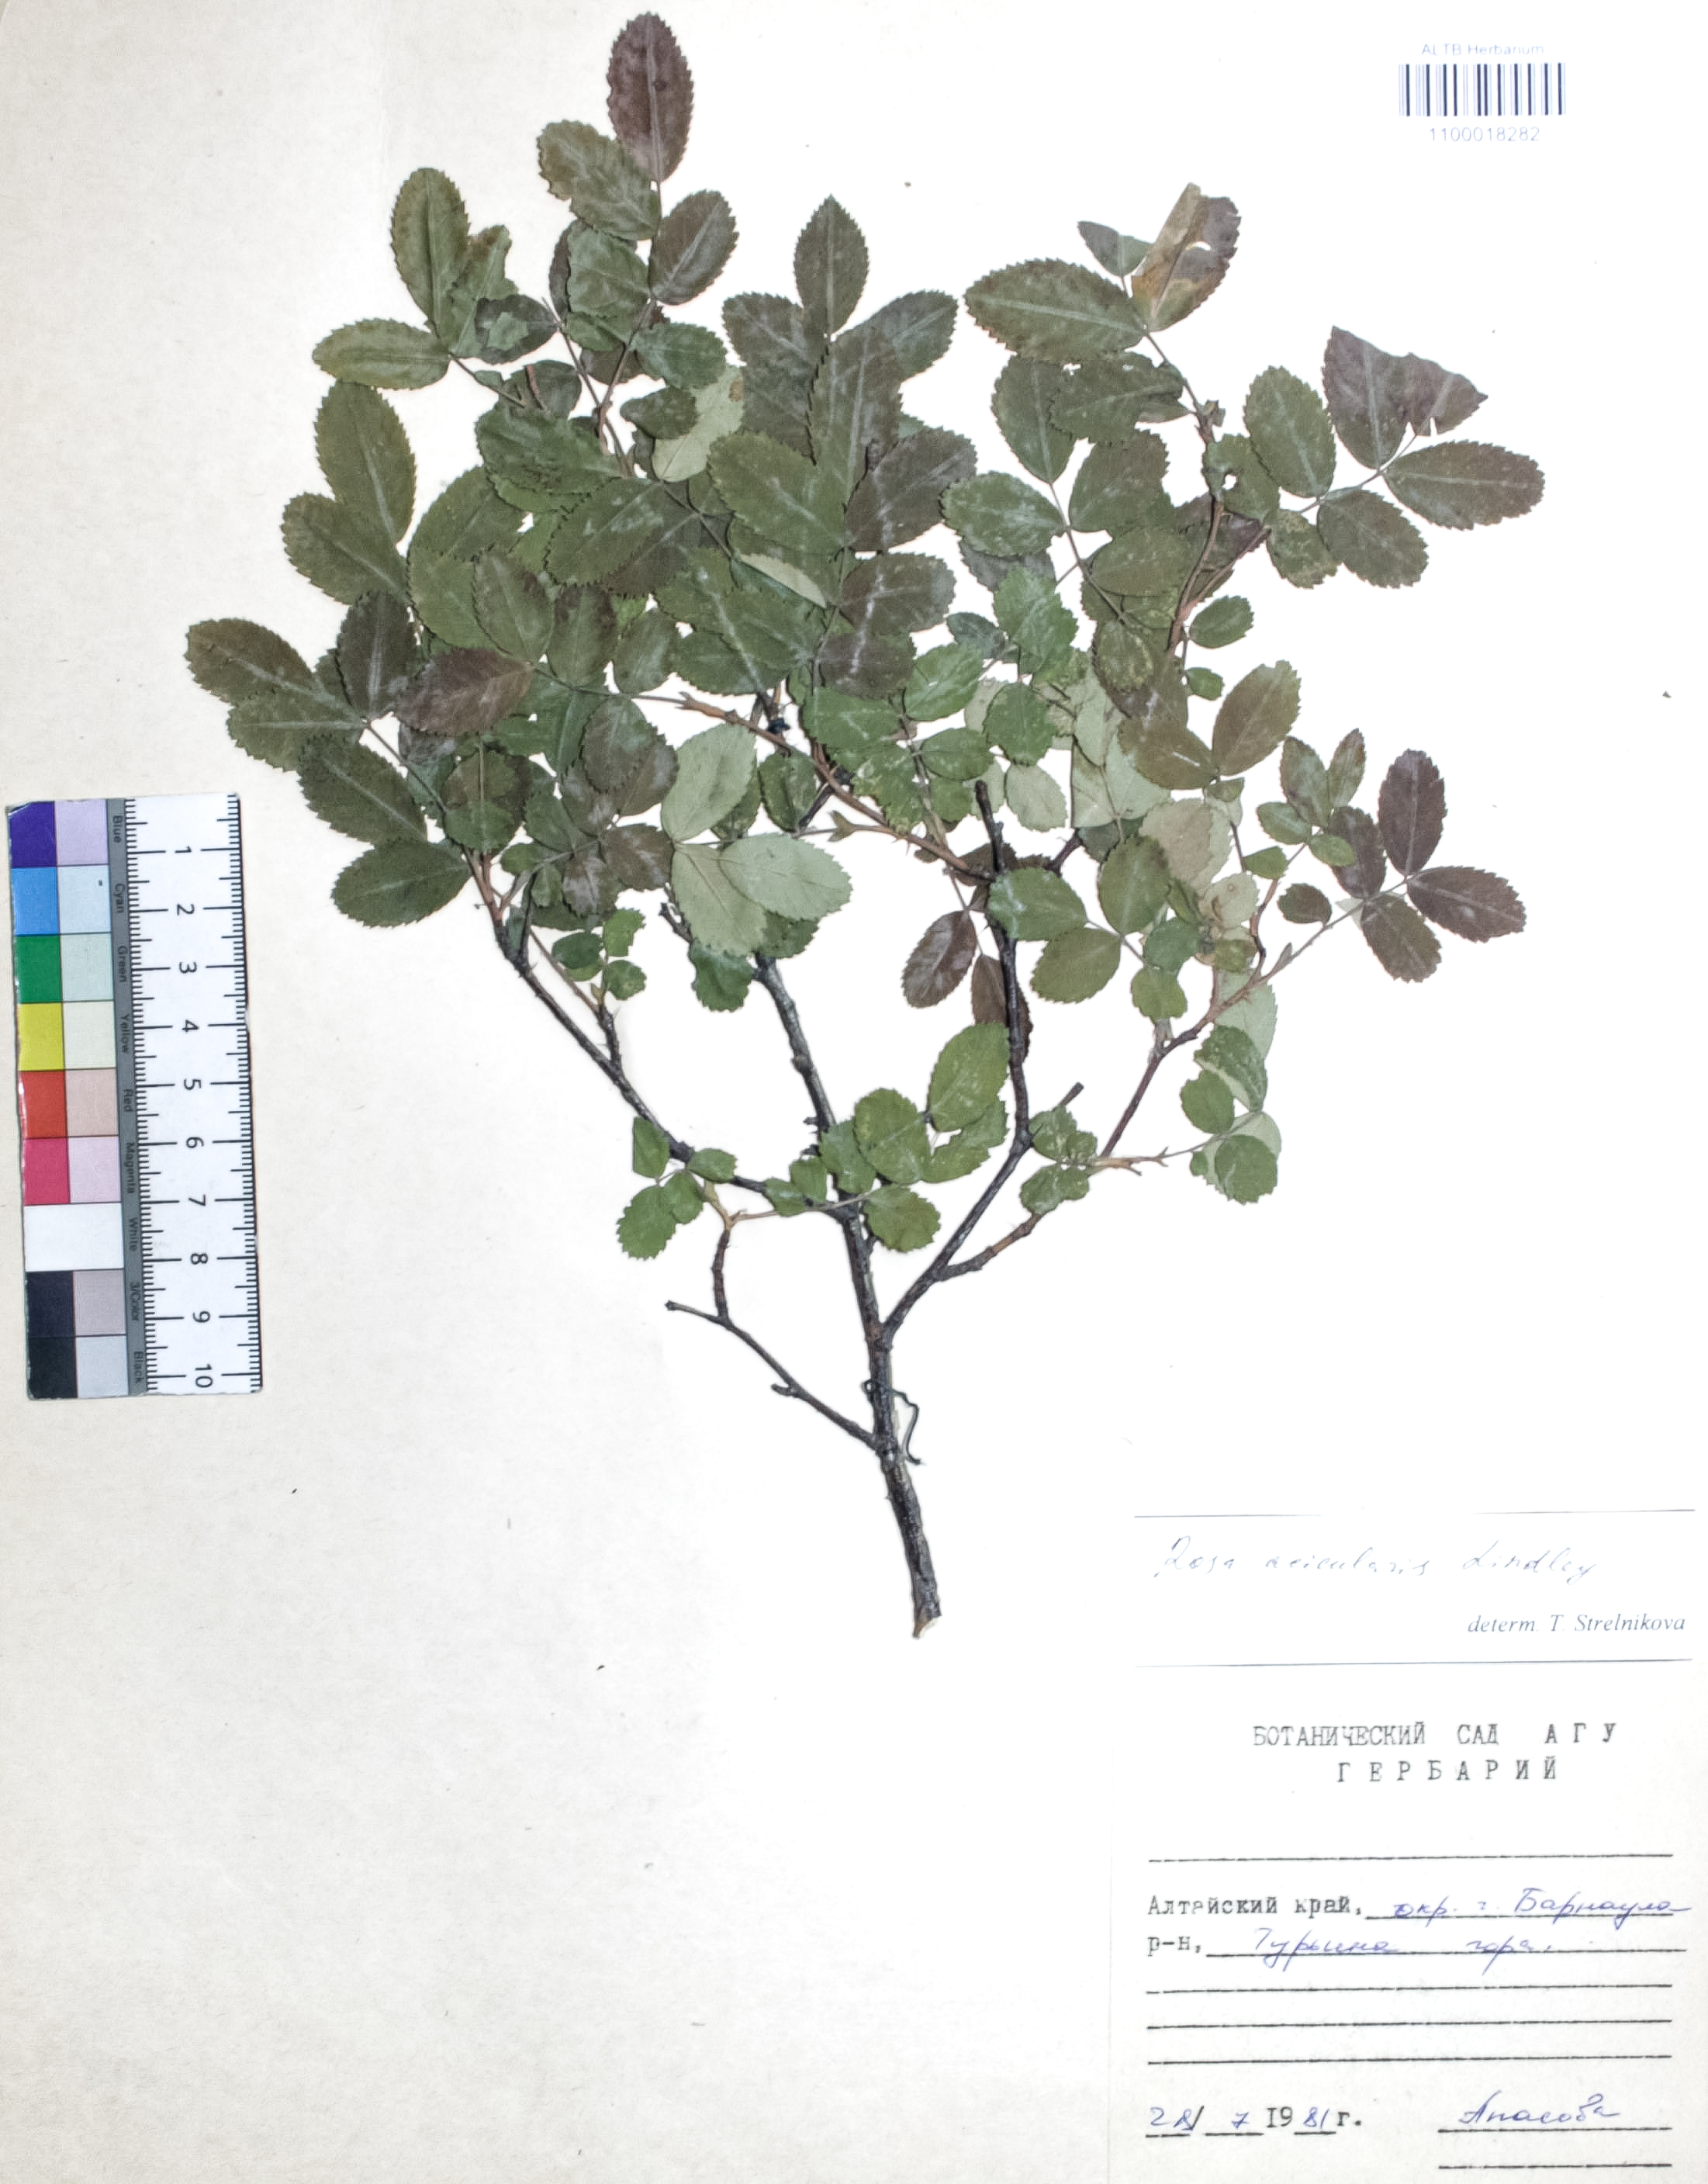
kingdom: Plantae
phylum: Tracheophyta
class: Magnoliopsida
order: Rosales
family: Rosaceae
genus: Rosa
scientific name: Rosa acicularis
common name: Prickly rose
